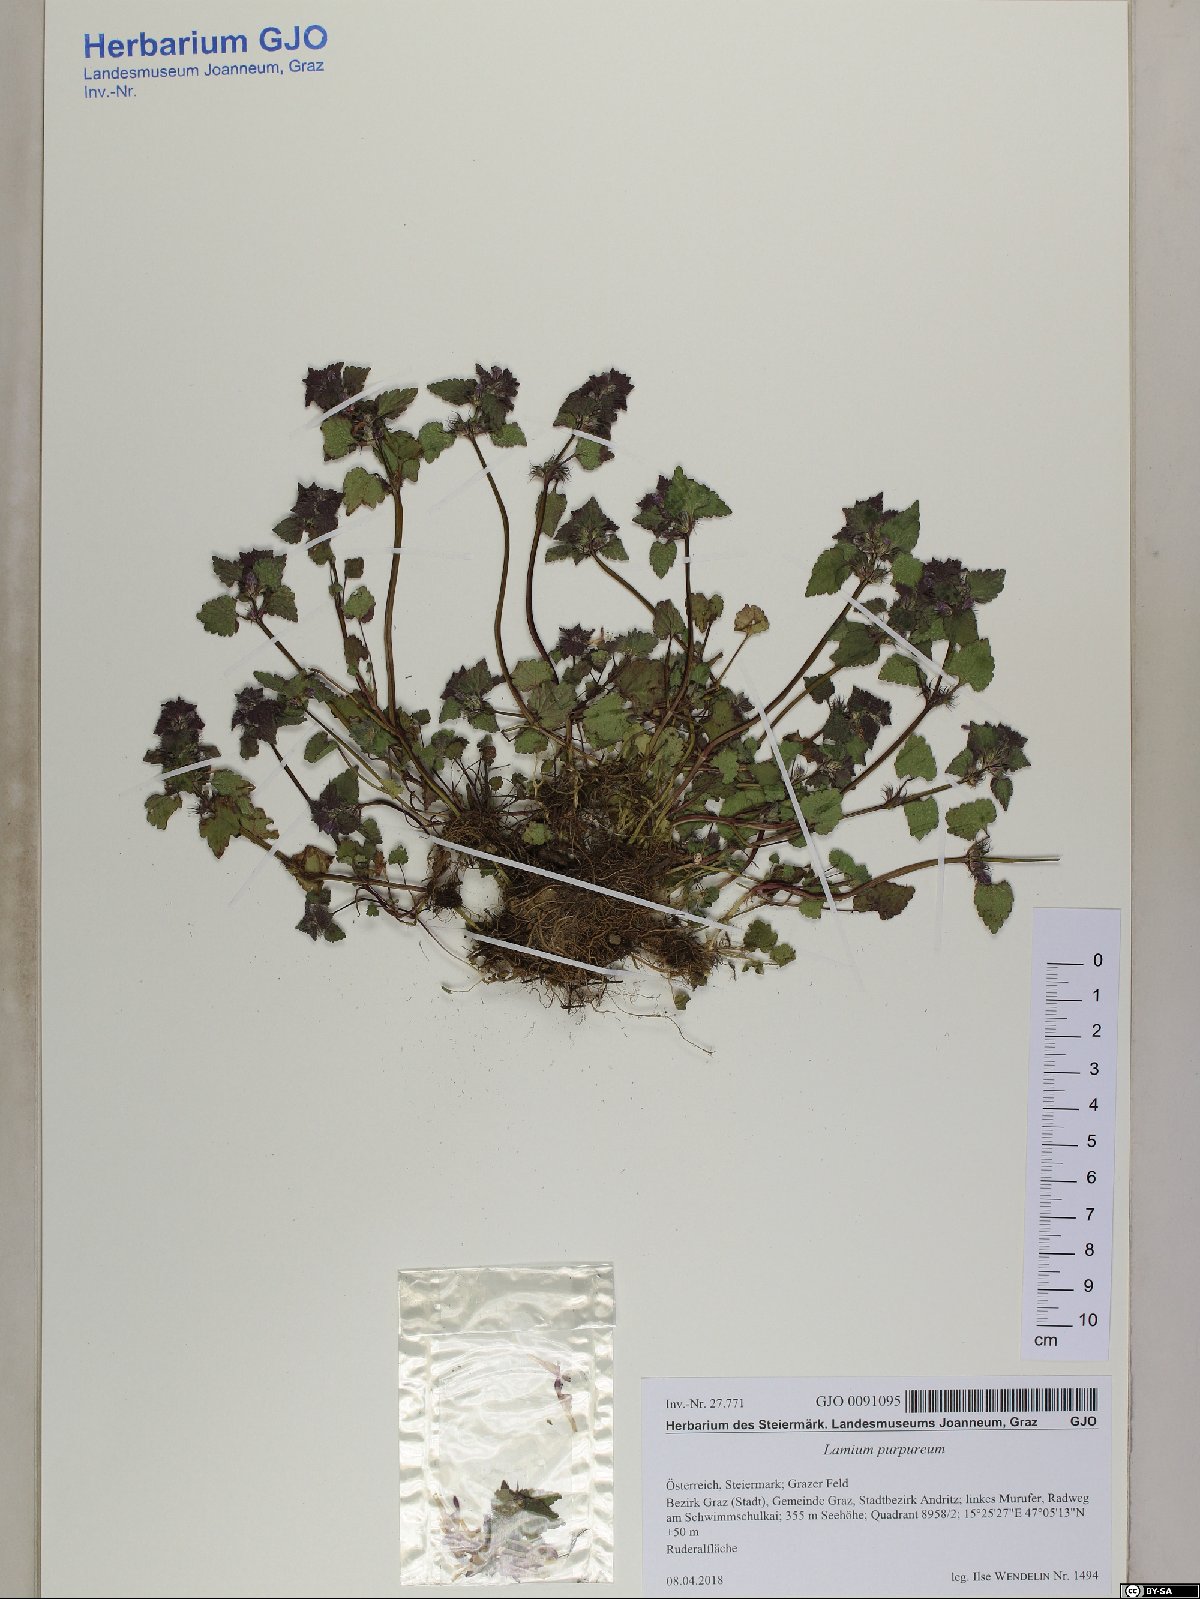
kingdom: Plantae
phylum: Tracheophyta
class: Magnoliopsida
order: Lamiales
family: Lamiaceae
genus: Lamium
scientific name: Lamium purpureum
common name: Red dead-nettle
